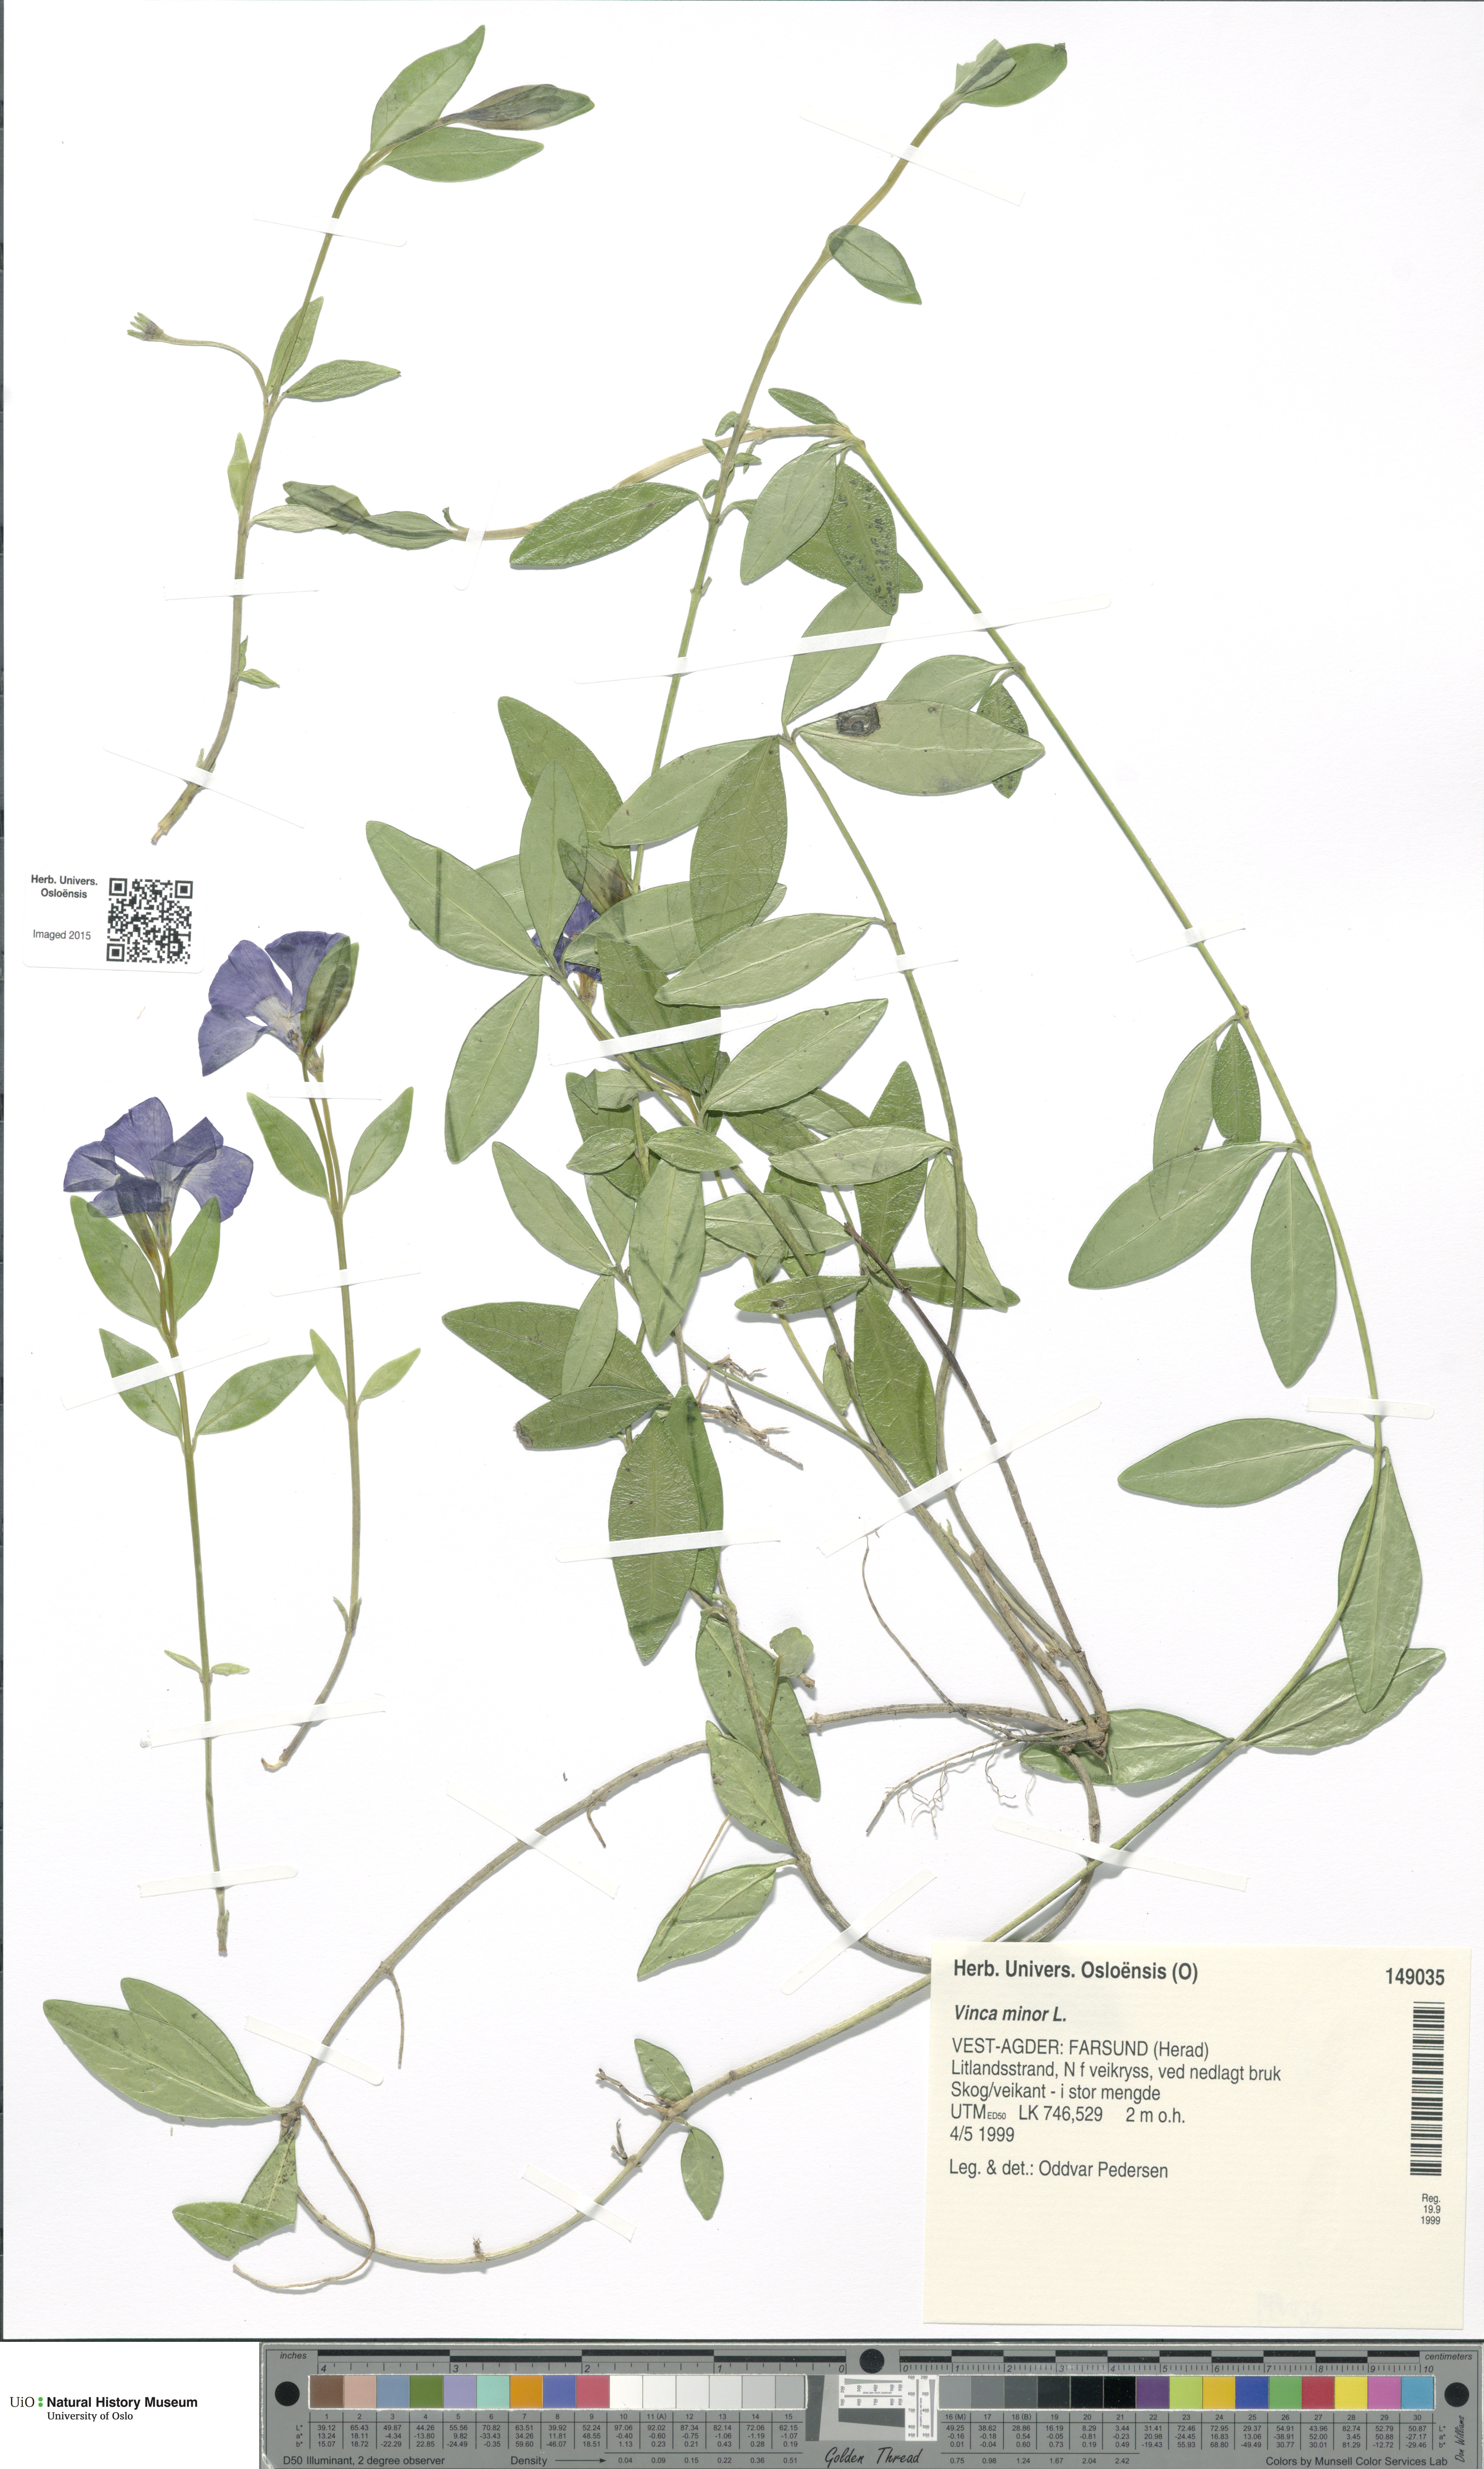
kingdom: Plantae
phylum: Tracheophyta
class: Magnoliopsida
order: Gentianales
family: Apocynaceae
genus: Vinca
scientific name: Vinca minor
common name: Lesser periwinkle
